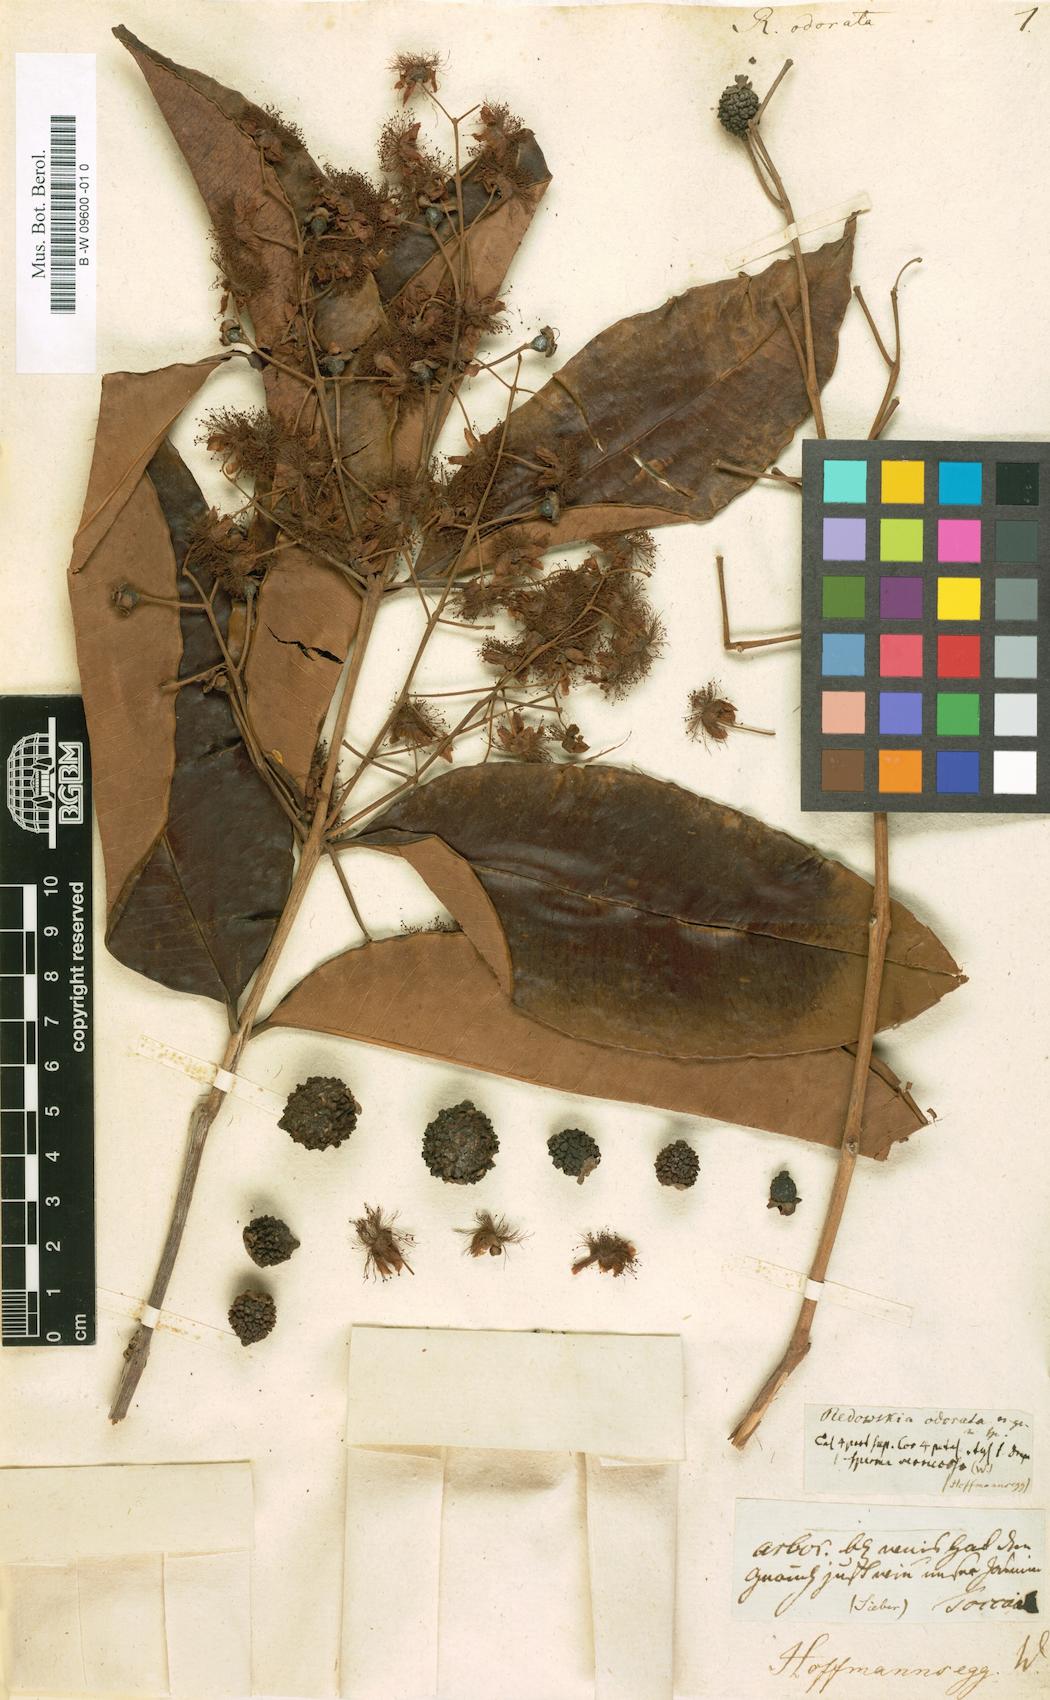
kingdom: Plantae
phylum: Tracheophyta
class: Magnoliopsida
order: Brassicales
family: Brassicaceae
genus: Smelowskia
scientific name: Smelowskia
